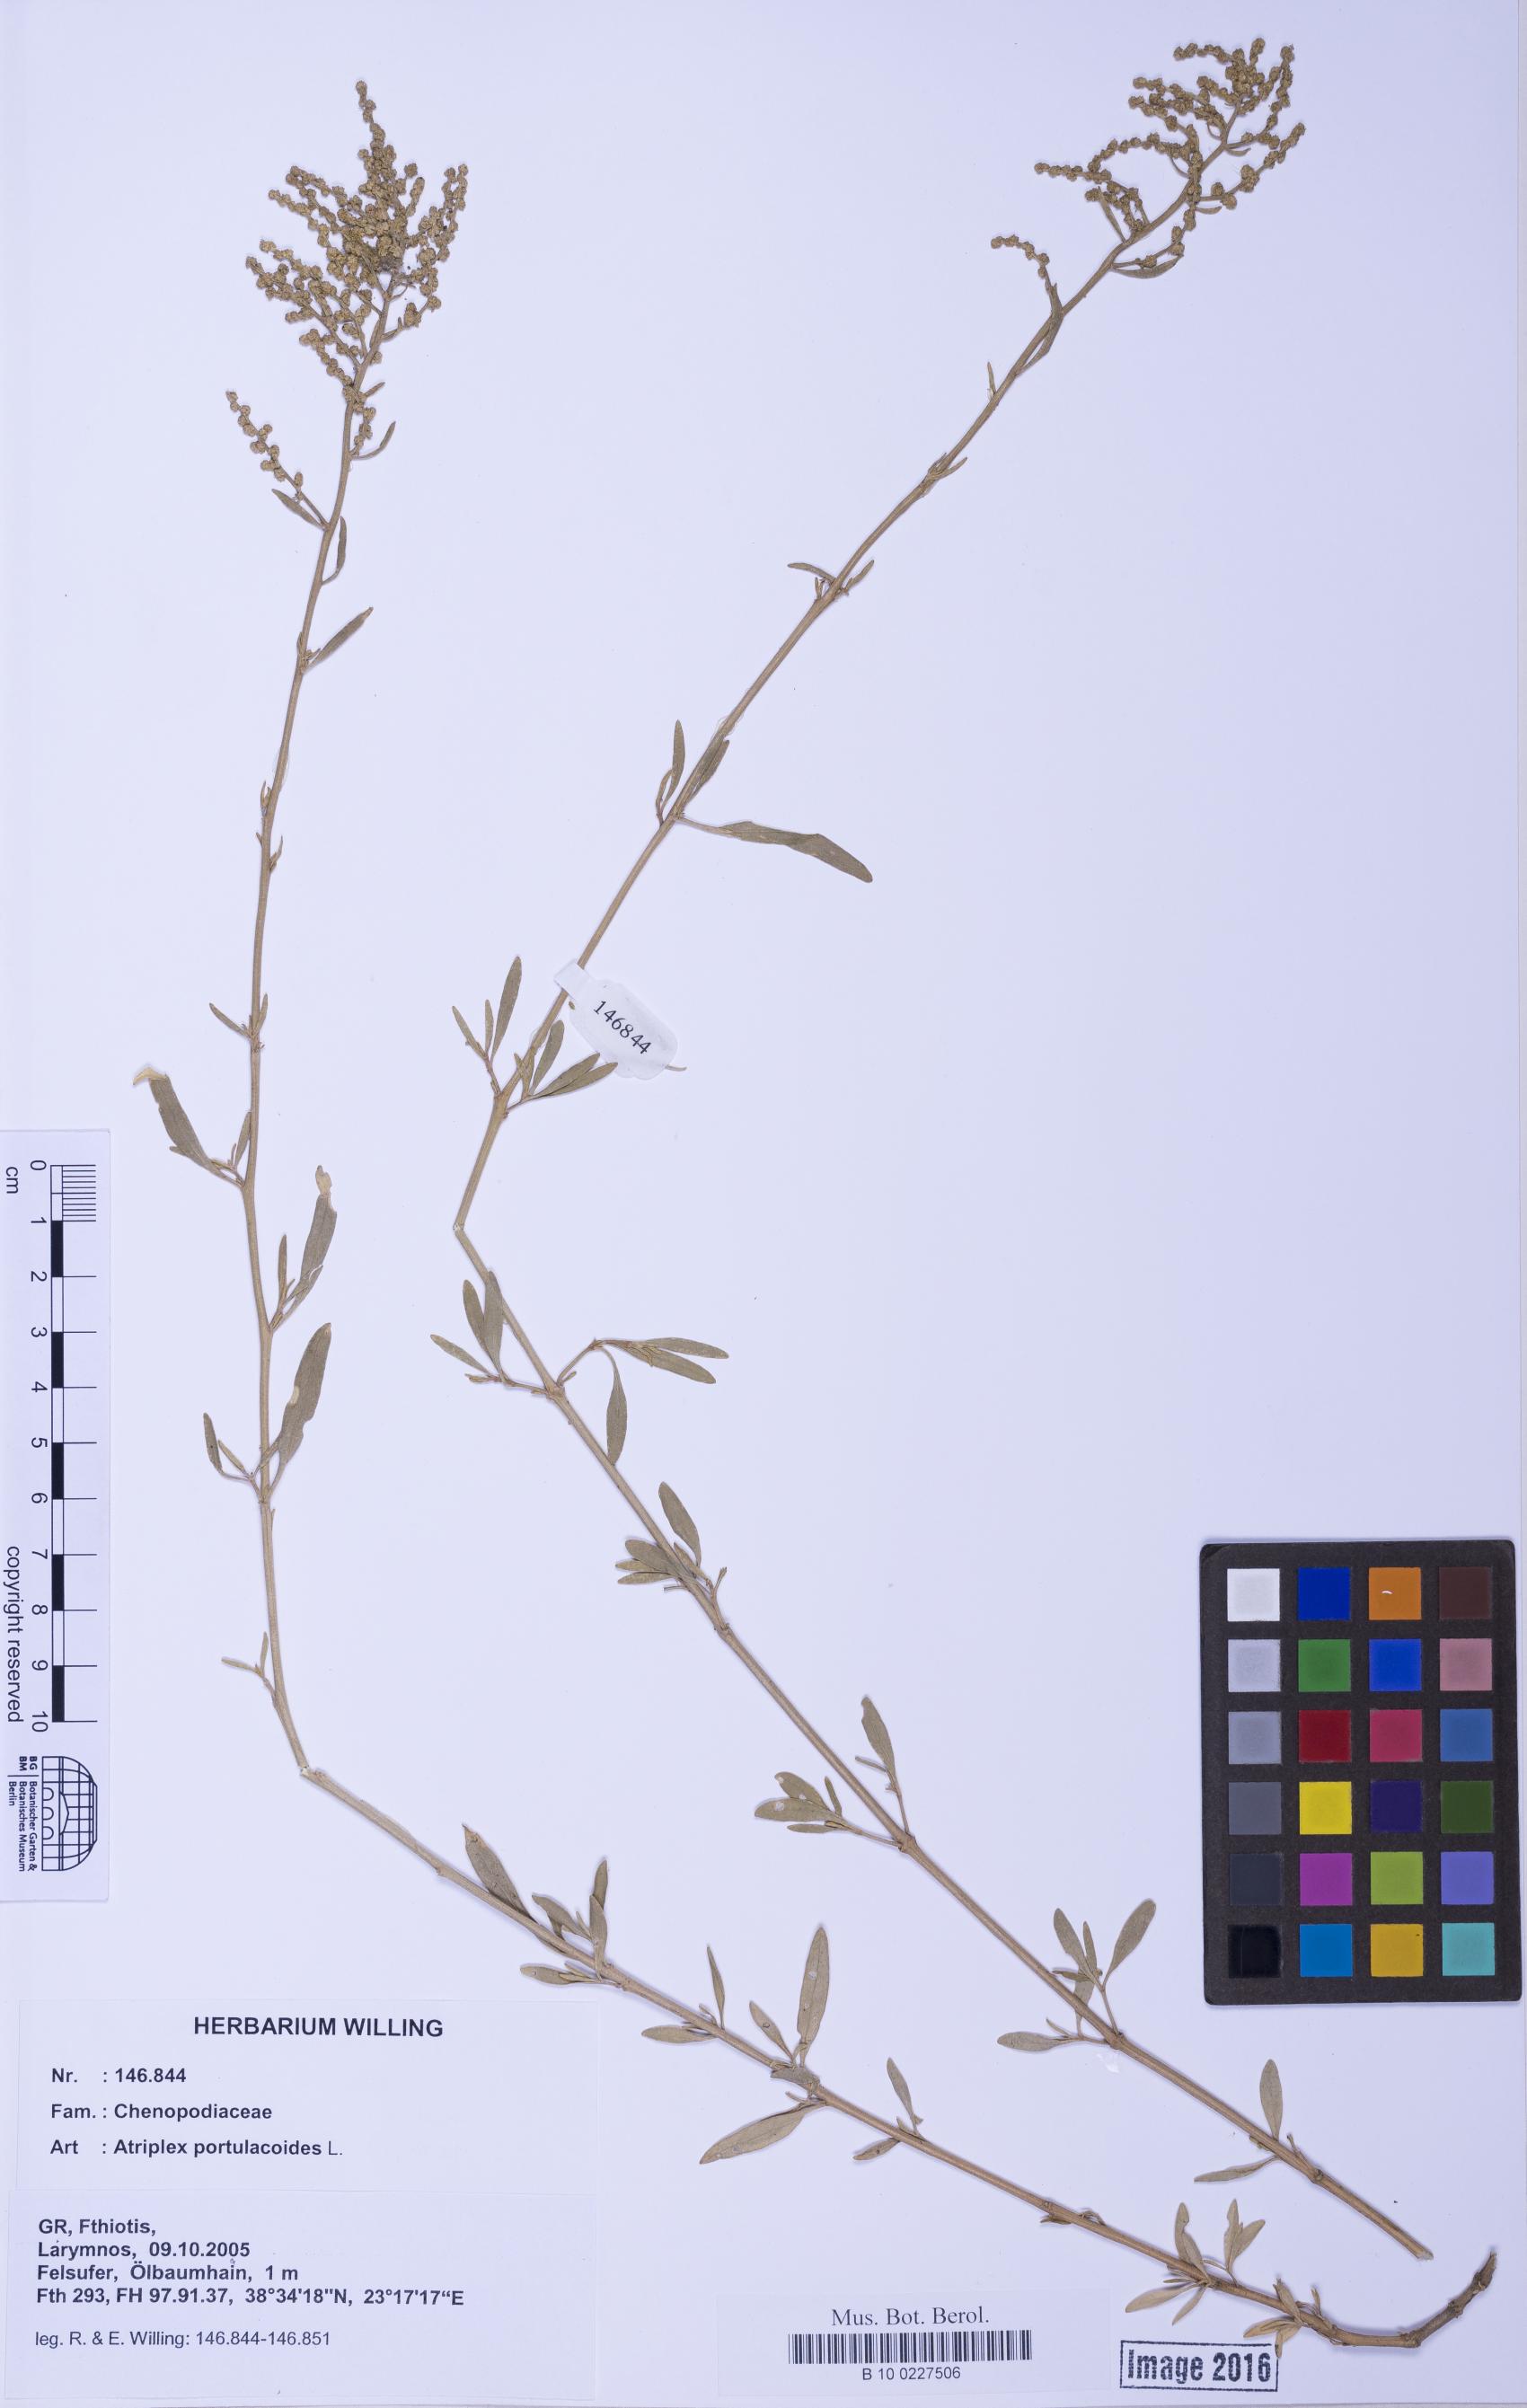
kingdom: Plantae
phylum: Tracheophyta
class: Magnoliopsida
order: Caryophyllales
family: Amaranthaceae
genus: Halimione
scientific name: Halimione portulacoides
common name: Sea-purslane
